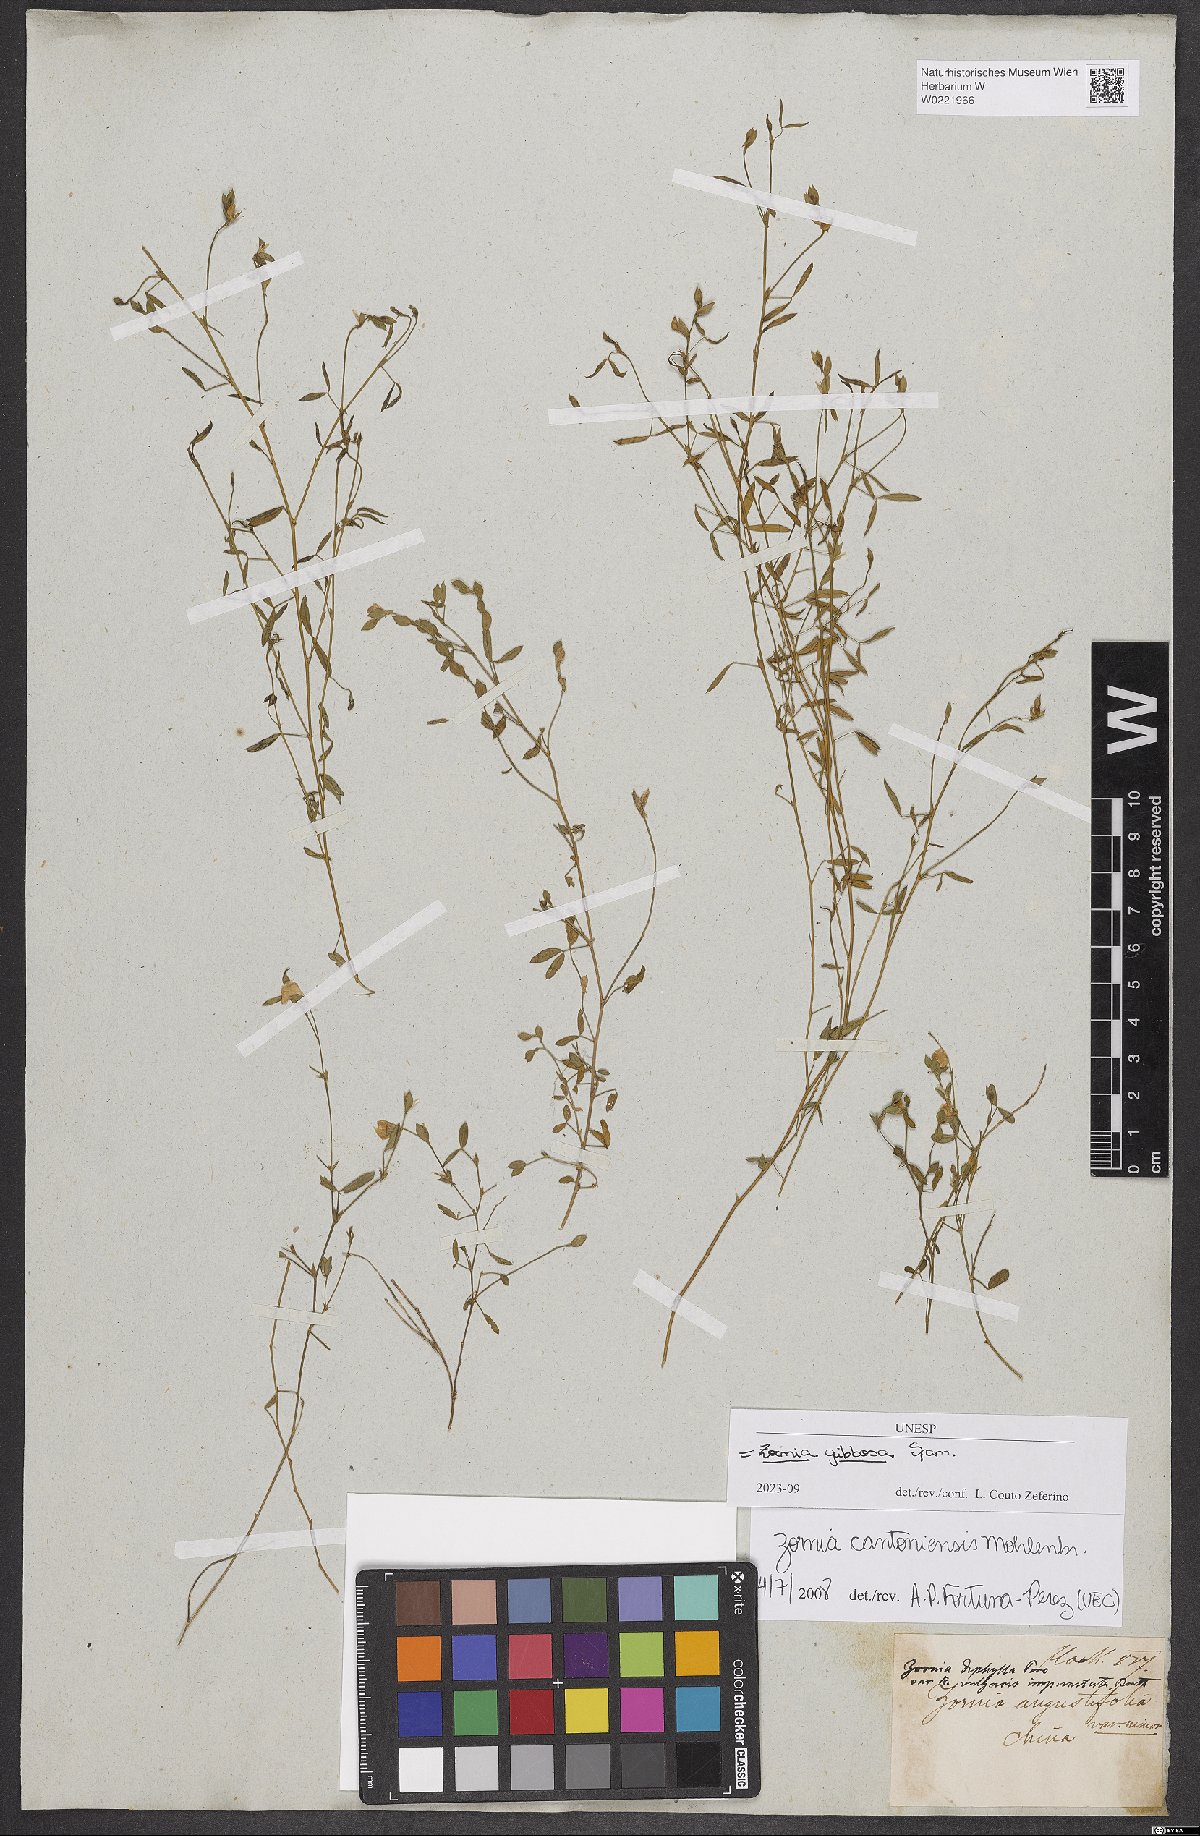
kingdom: Plantae
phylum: Tracheophyta
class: Magnoliopsida
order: Fabales
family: Fabaceae
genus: Zornia
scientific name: Zornia gibbosa
